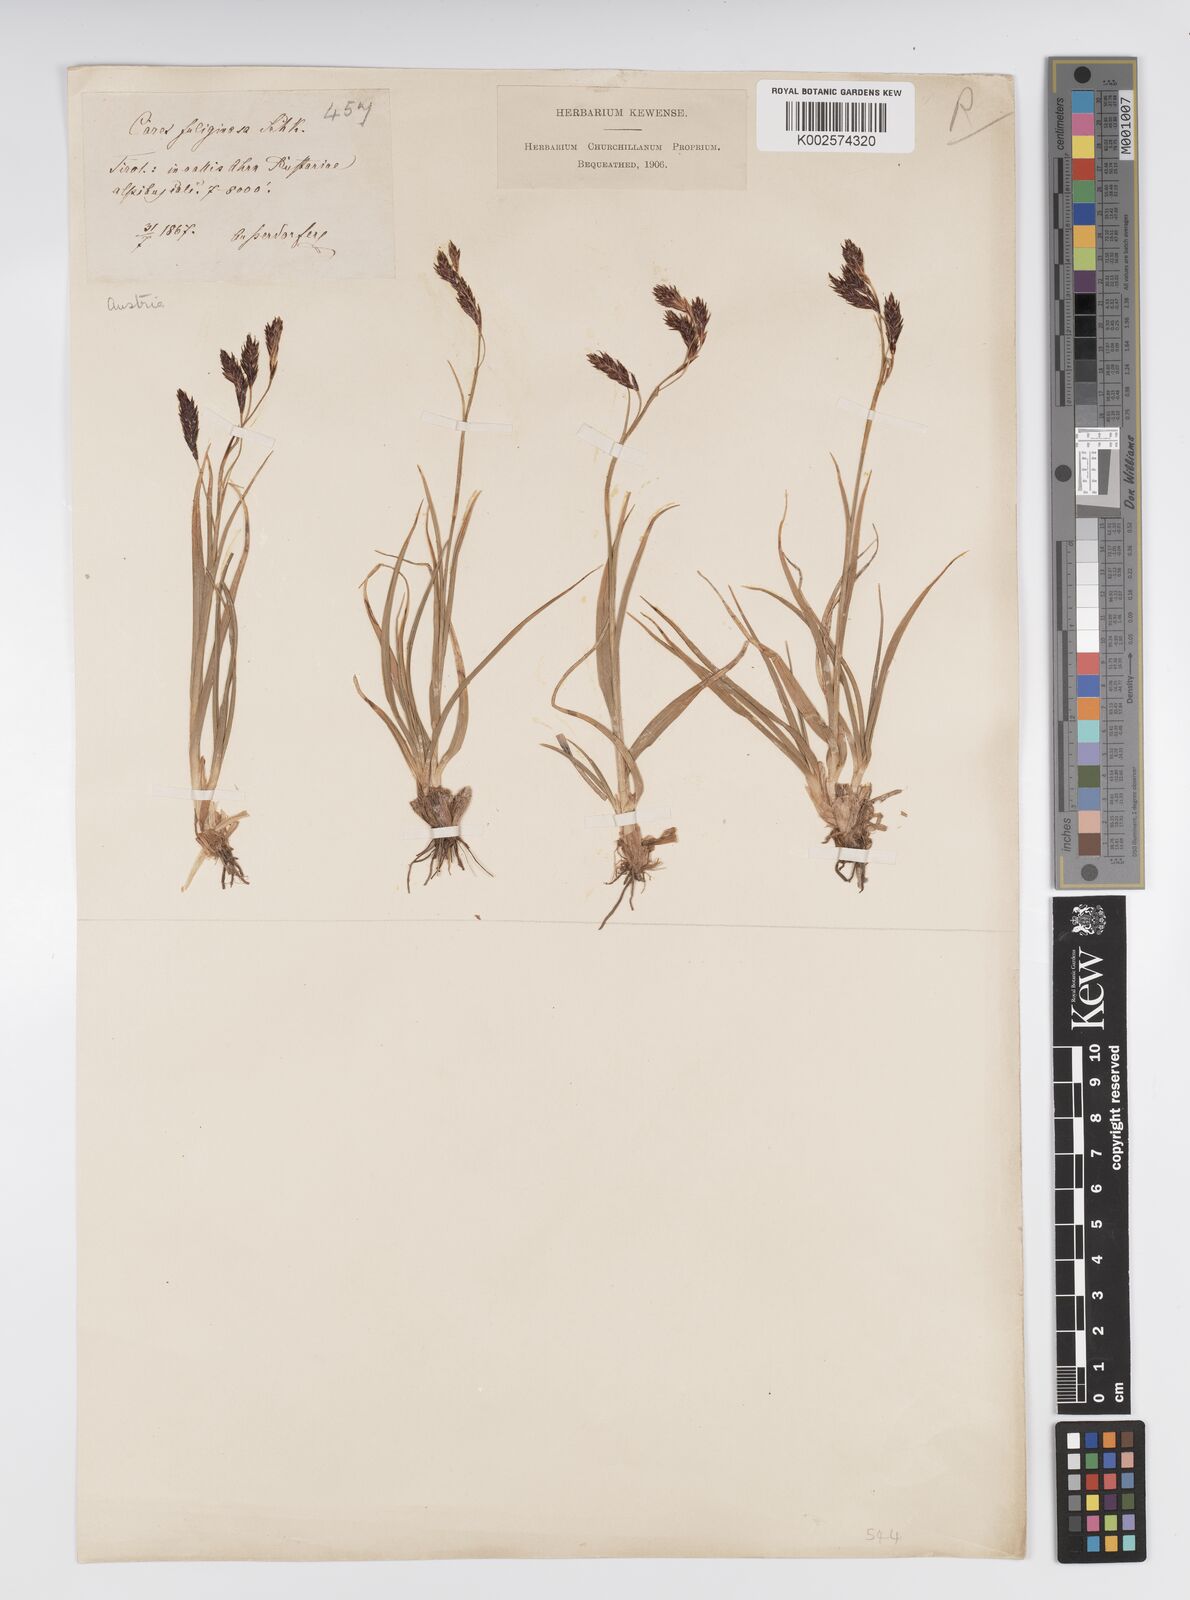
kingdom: Plantae
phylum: Tracheophyta
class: Liliopsida
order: Poales
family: Cyperaceae
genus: Carex
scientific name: Carex fuliginosa
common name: Few-flowered sedge
